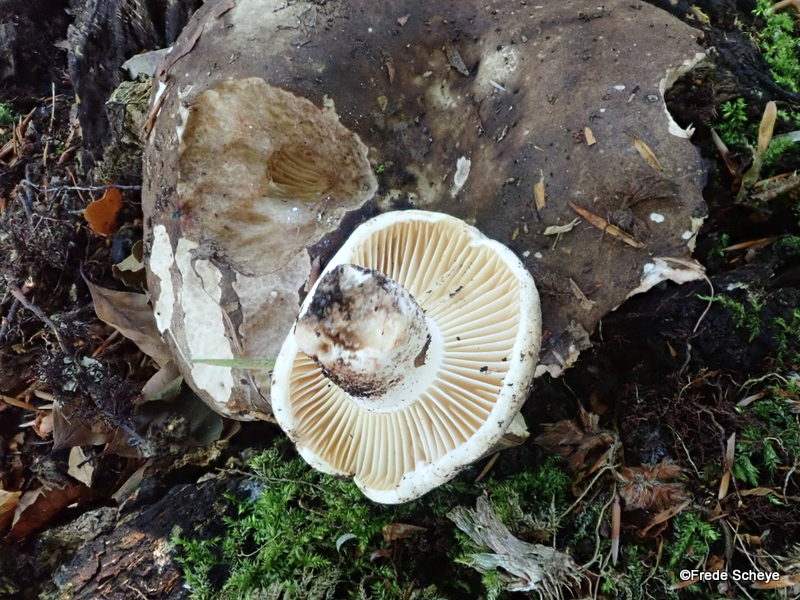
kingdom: Fungi
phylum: Basidiomycota
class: Agaricomycetes
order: Russulales
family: Russulaceae
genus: Russula
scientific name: Russula adusta
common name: sværtende skørhat
